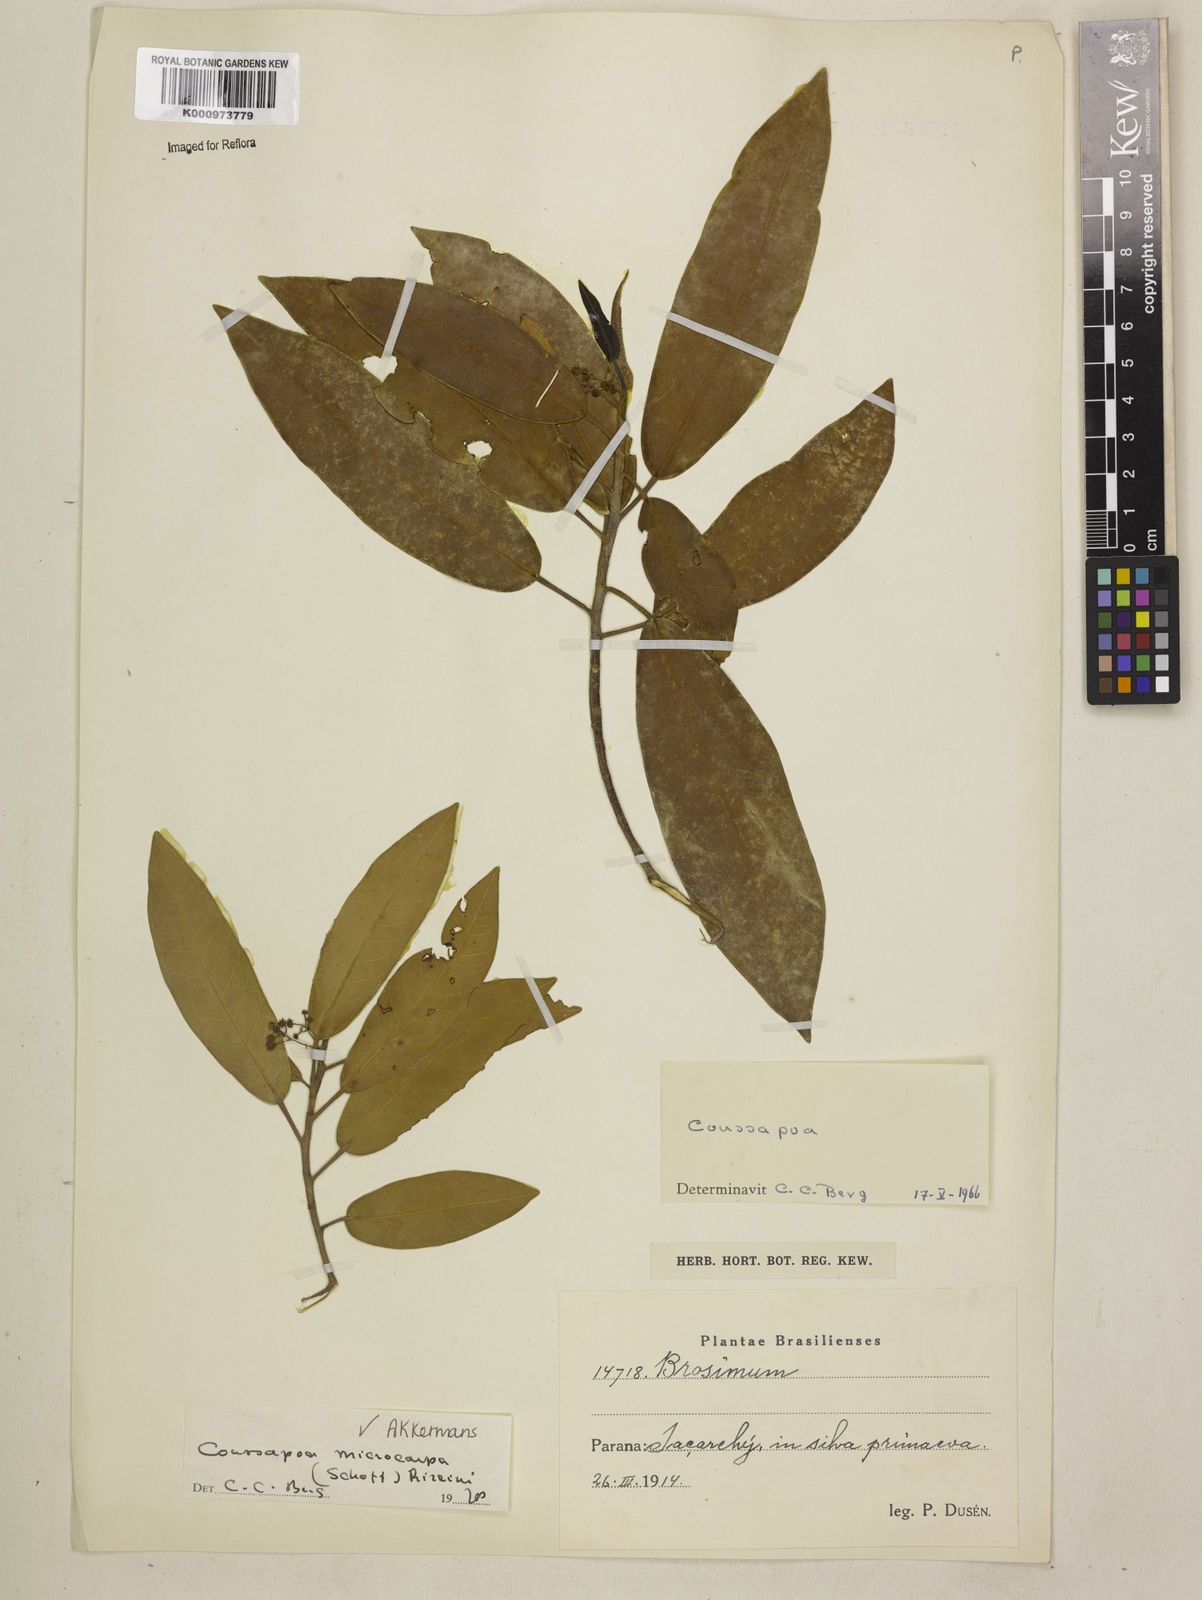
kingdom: Plantae
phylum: Tracheophyta
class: Magnoliopsida
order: Rosales
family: Urticaceae
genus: Coussapoa
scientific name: Coussapoa microcarpa
